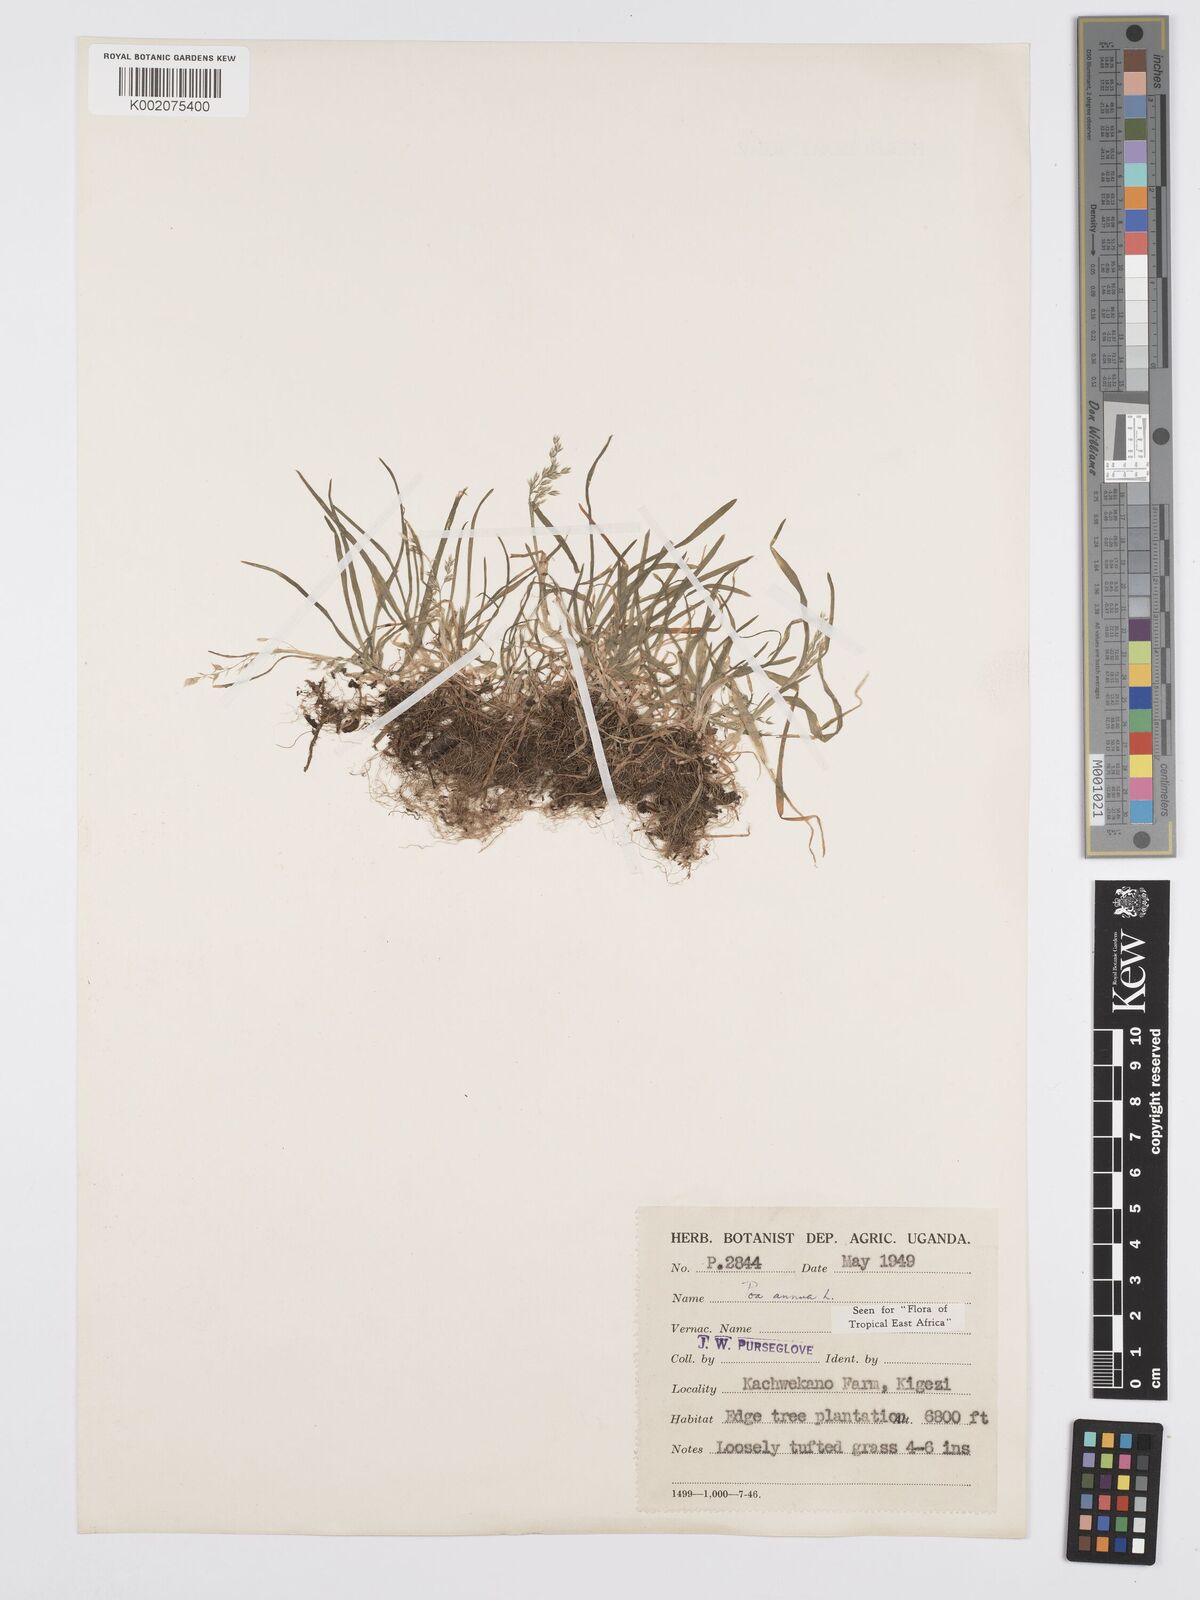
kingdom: Plantae
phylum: Tracheophyta
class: Liliopsida
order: Poales
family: Poaceae
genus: Poa
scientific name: Poa annua
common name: Annual bluegrass
